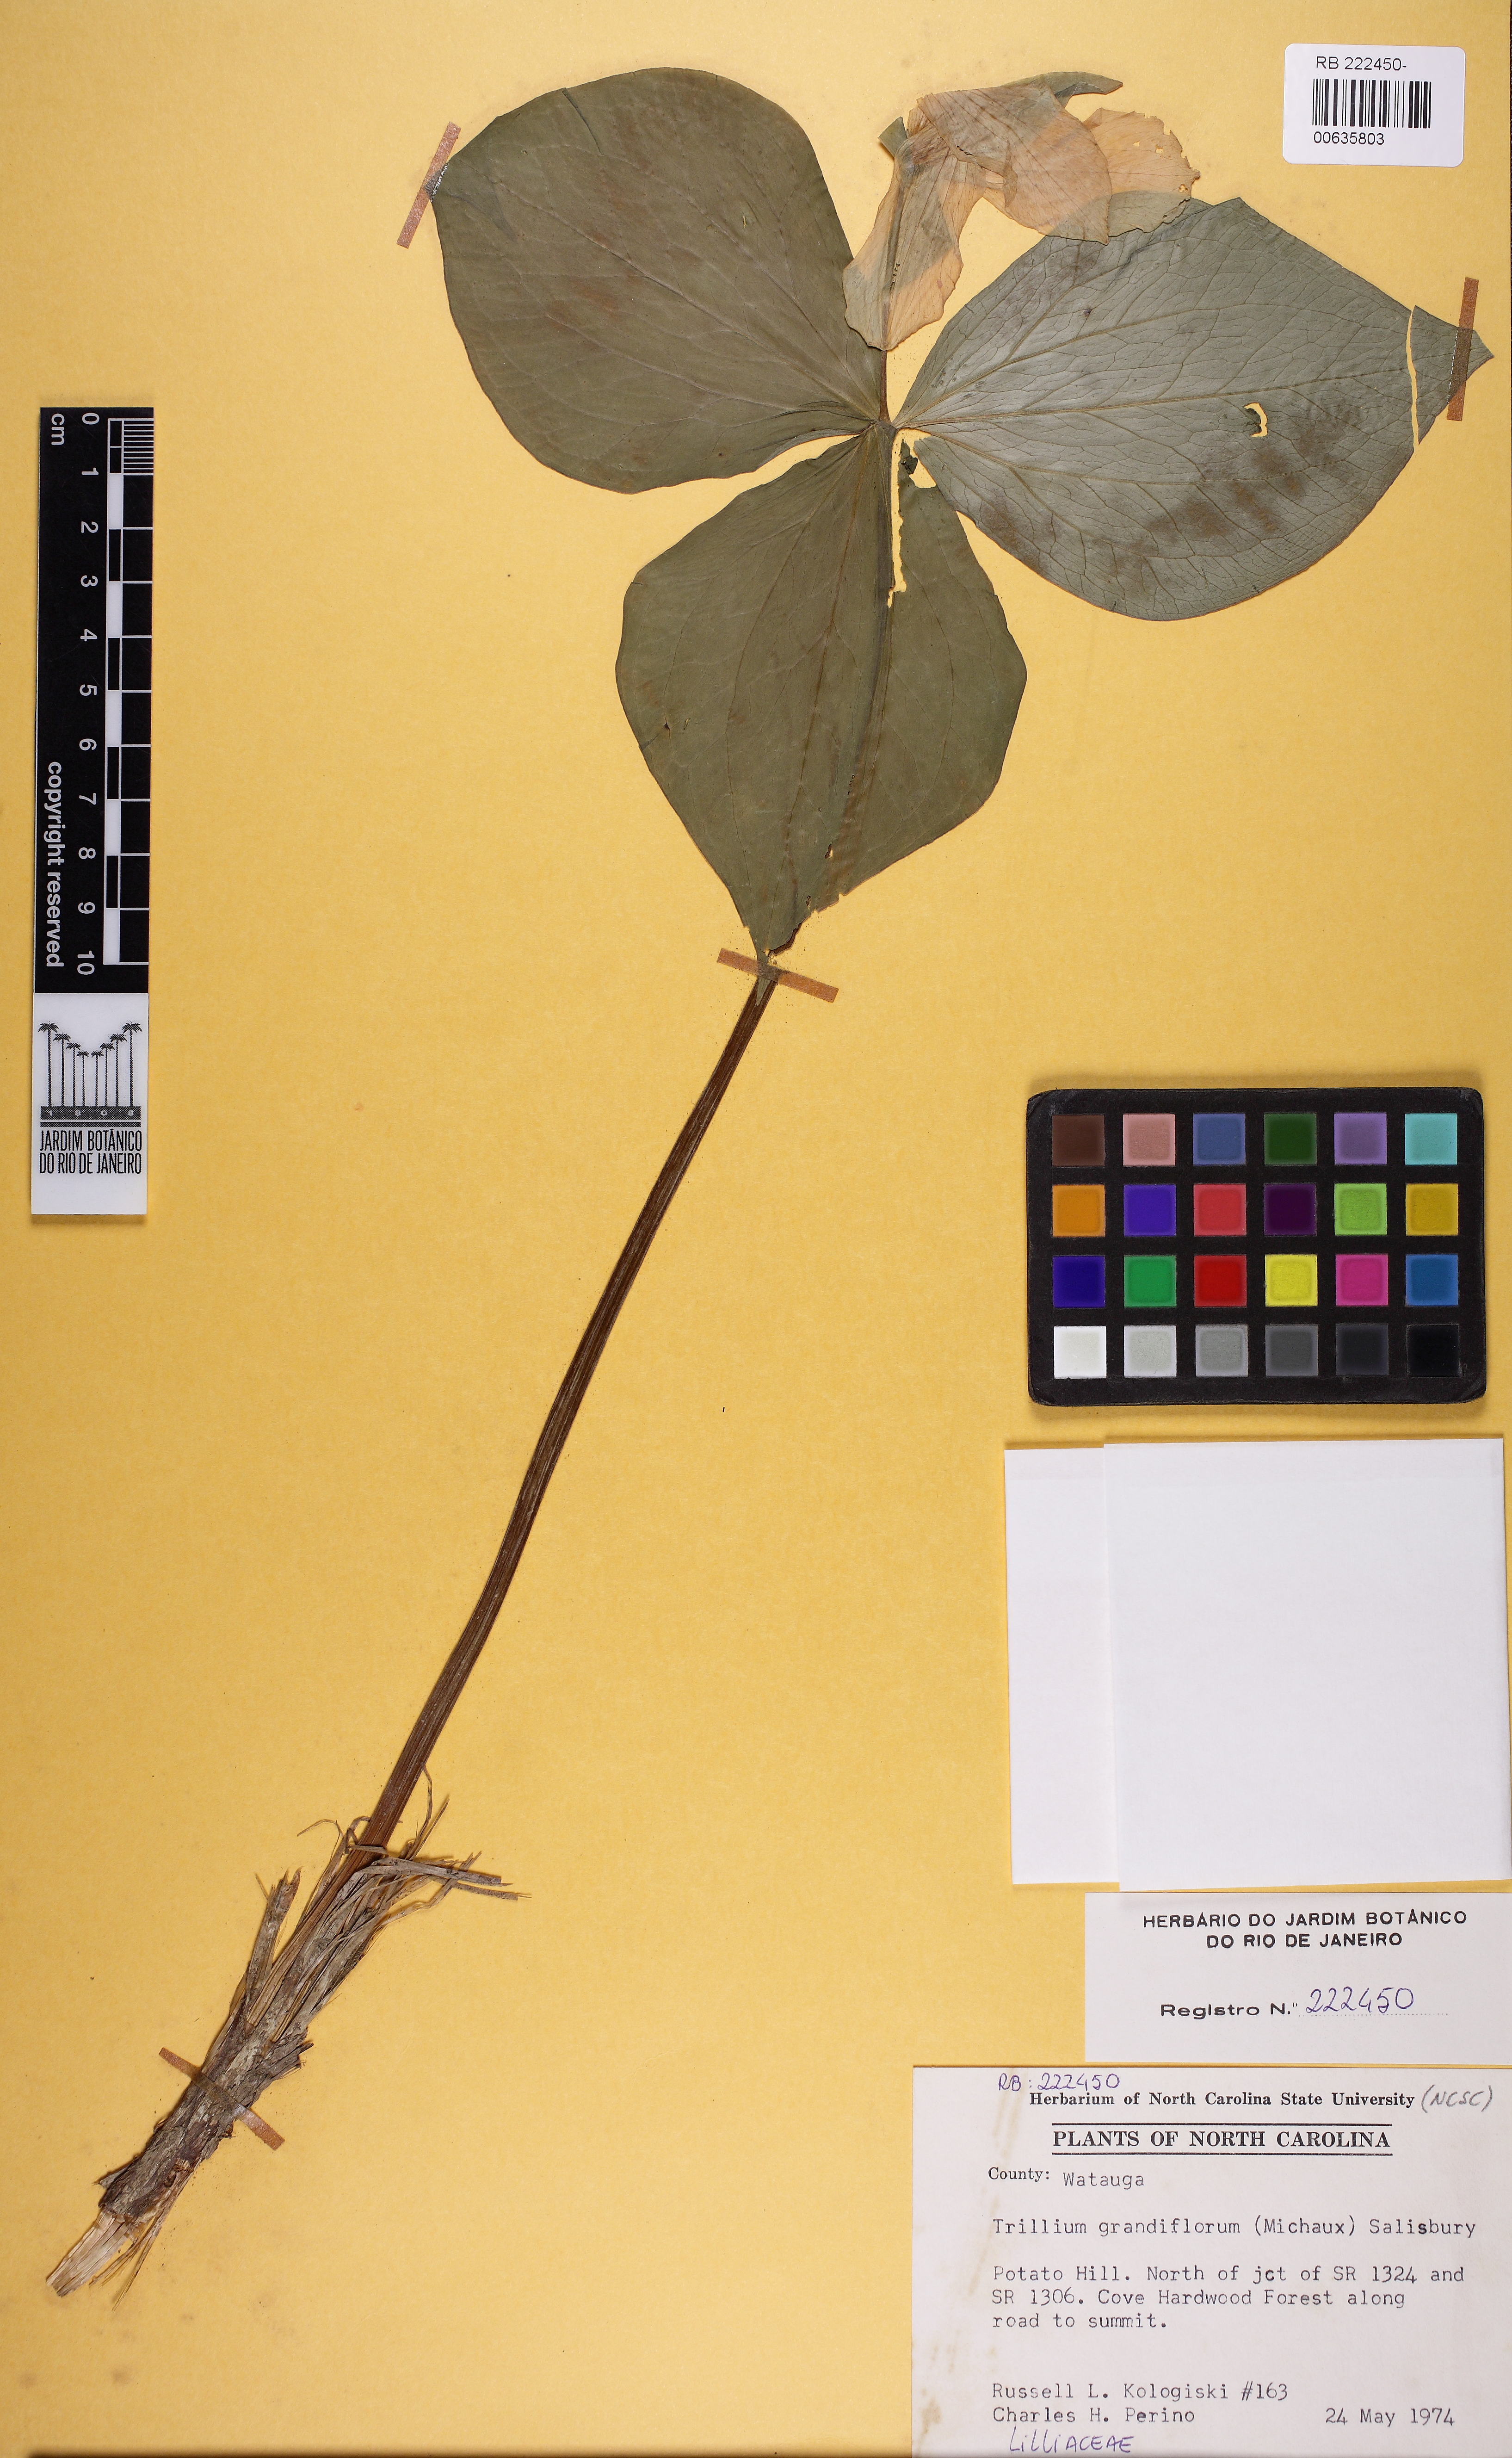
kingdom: Plantae
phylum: Tracheophyta
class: Liliopsida
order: Liliales
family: Melanthiaceae
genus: Trillium
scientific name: Trillium grandiflorum
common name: Great white trillium
